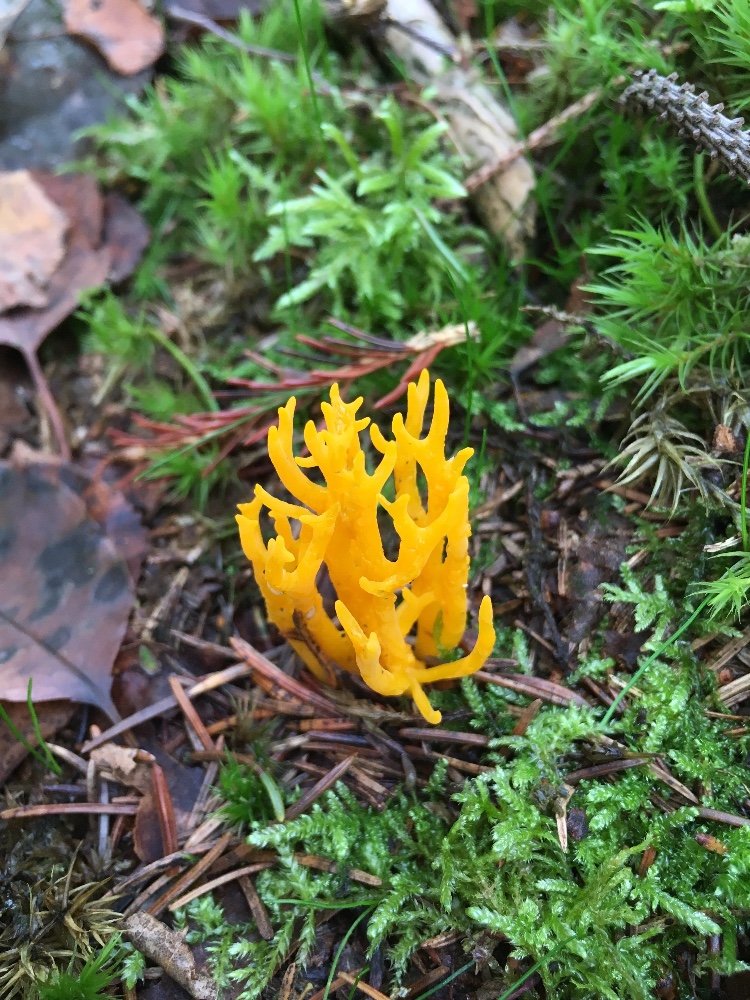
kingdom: Fungi
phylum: Basidiomycota
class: Dacrymycetes
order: Dacrymycetales
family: Dacrymycetaceae
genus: Calocera
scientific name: Calocera viscosa
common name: almindelig guldgaffel
